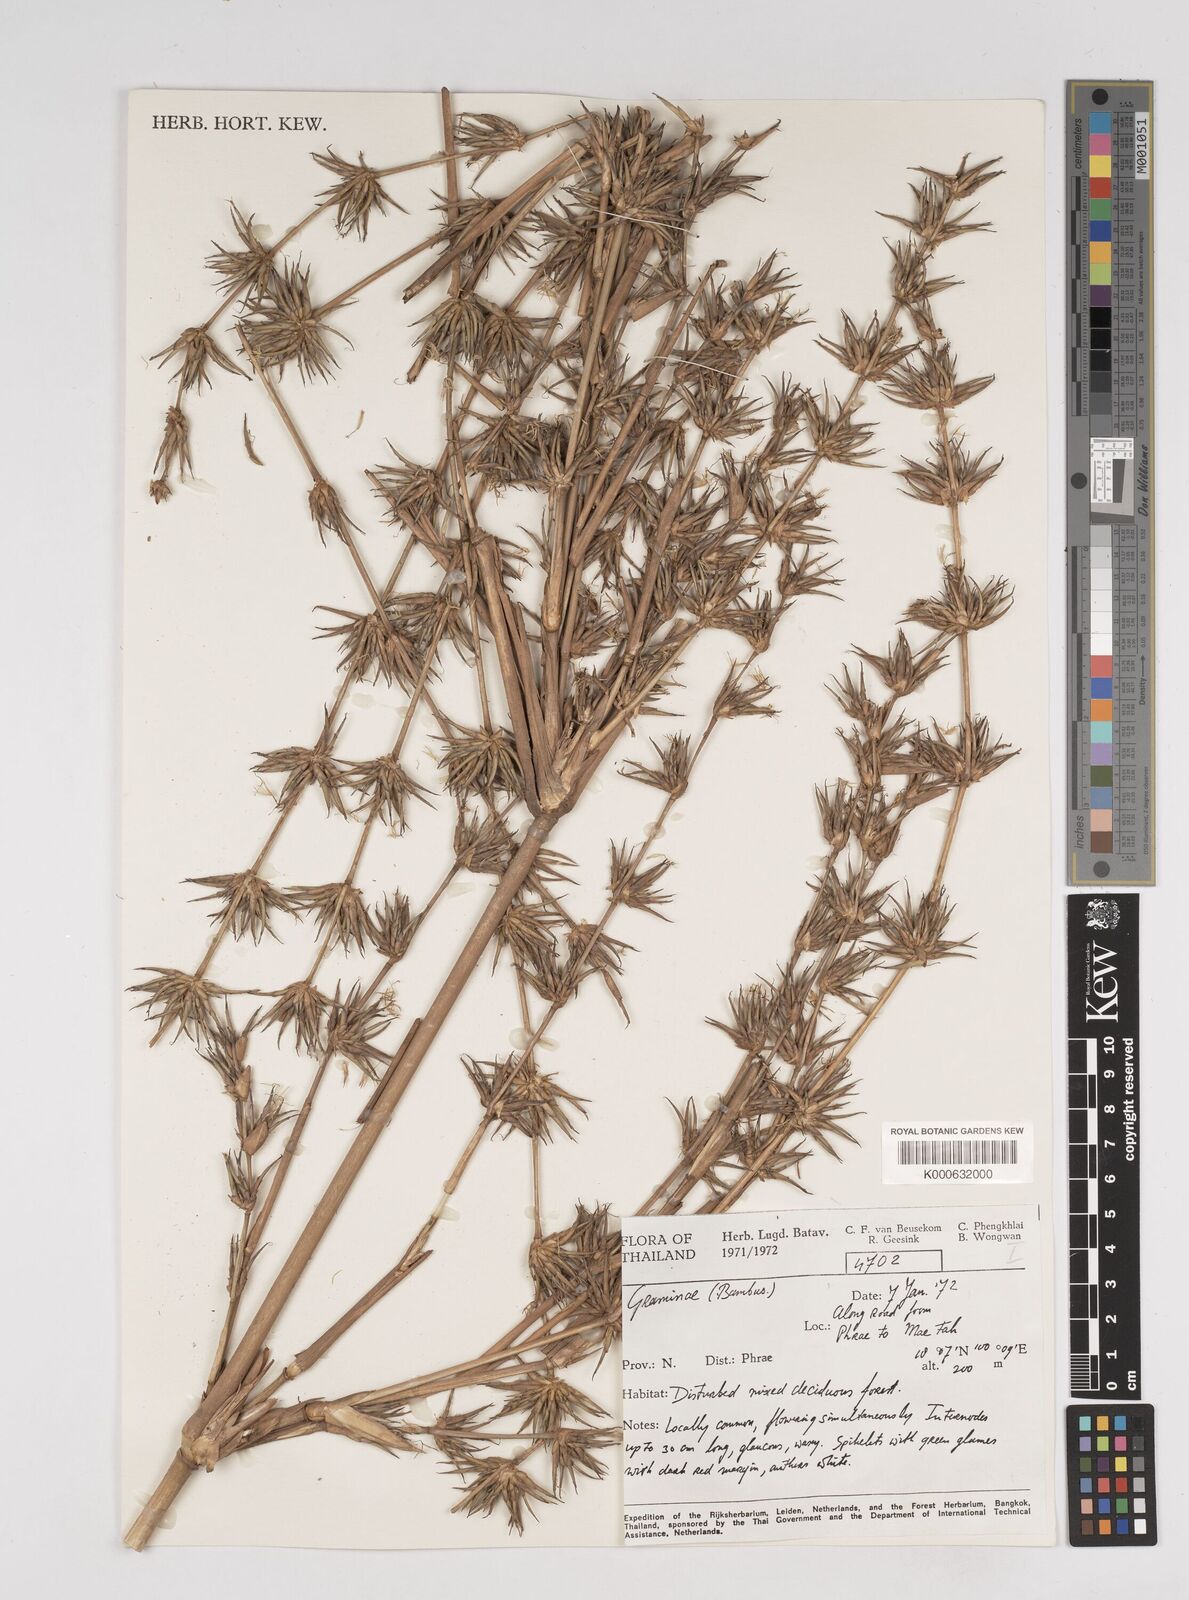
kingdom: Plantae
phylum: Tracheophyta
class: Liliopsida
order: Poales
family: Poaceae
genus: Dendrocalamus
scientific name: Dendrocalamus
